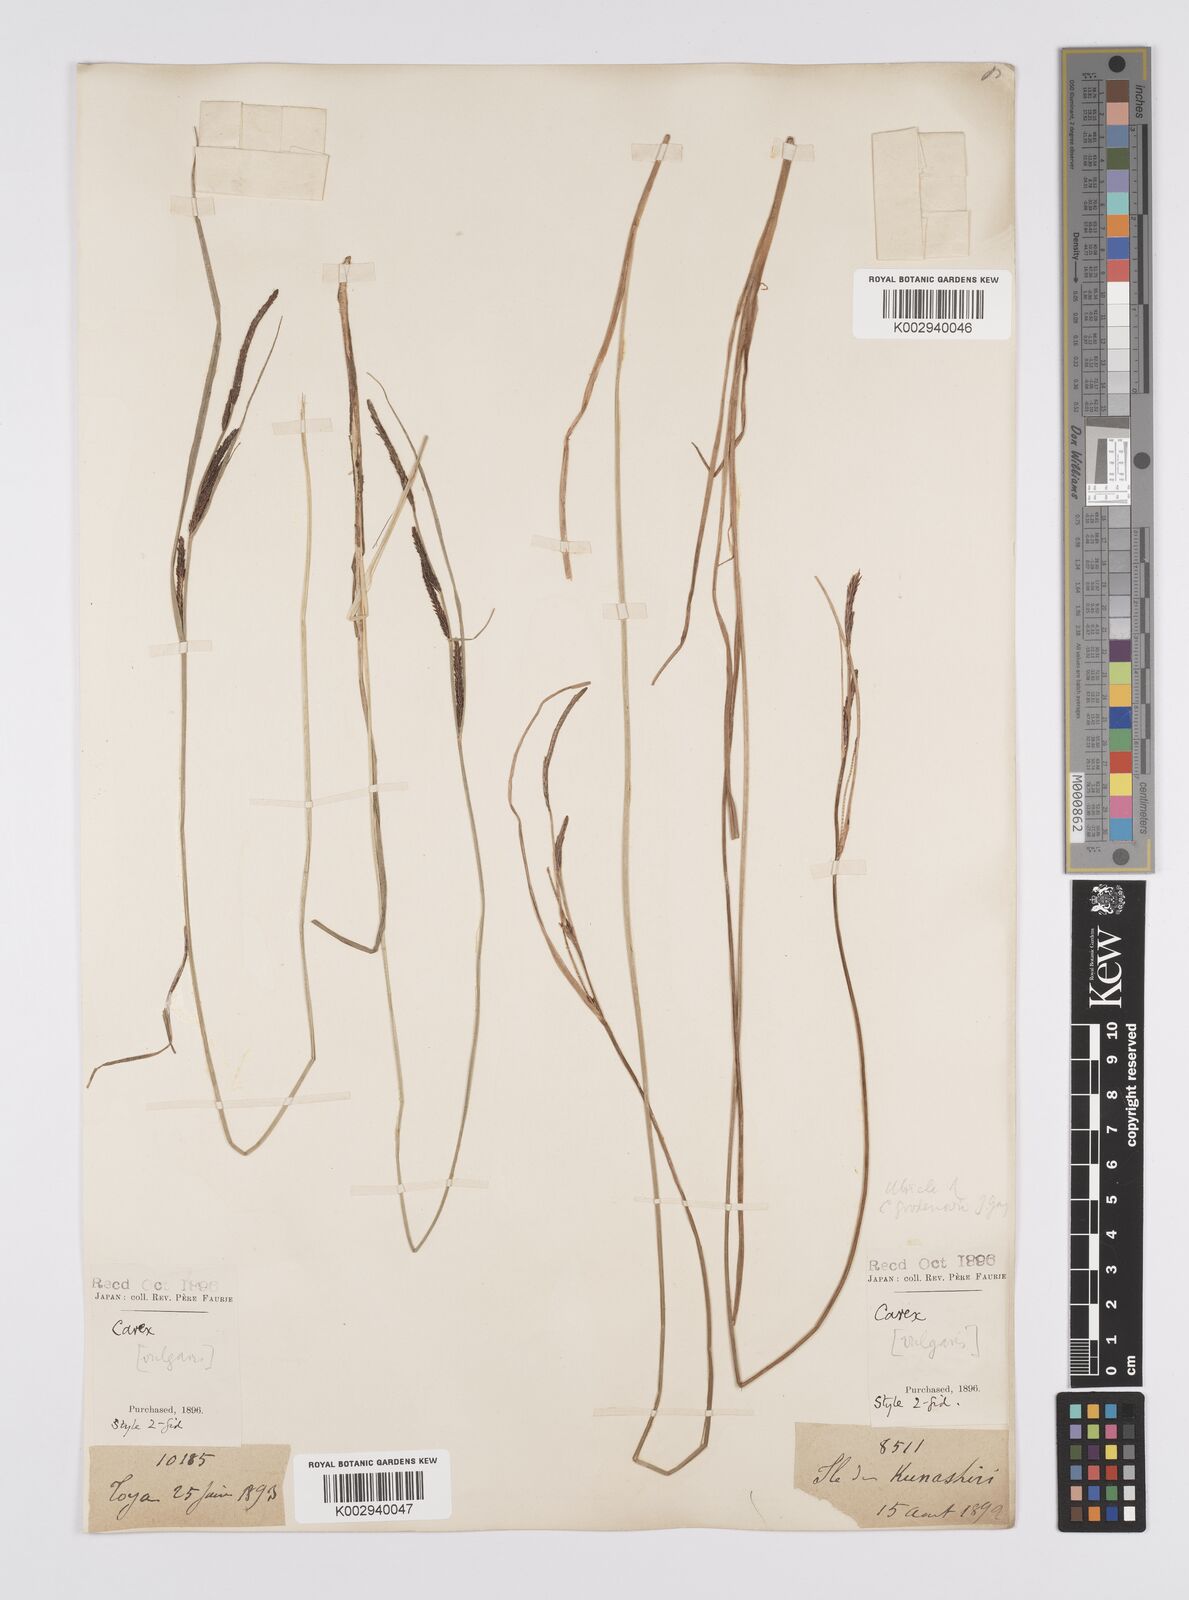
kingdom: Plantae
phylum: Tracheophyta
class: Liliopsida
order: Poales
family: Cyperaceae
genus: Carex
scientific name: Carex thunbergii
